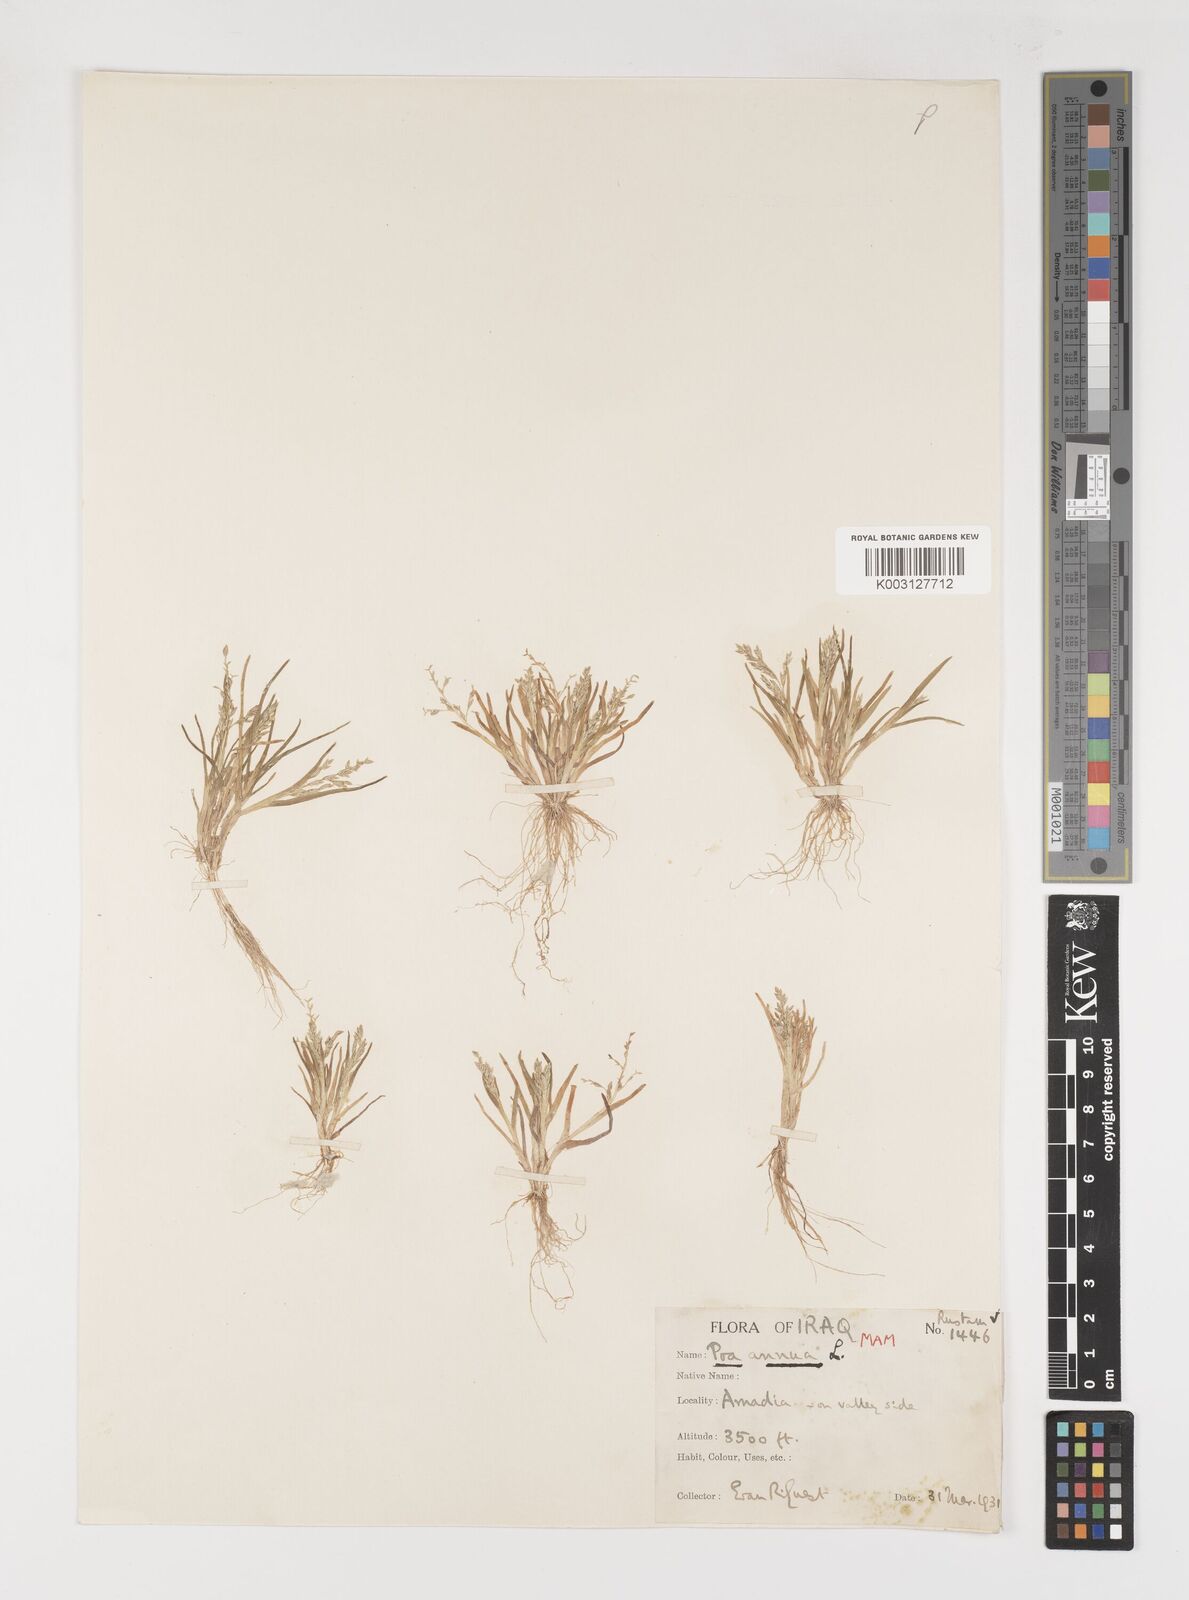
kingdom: Plantae
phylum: Tracheophyta
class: Liliopsida
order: Poales
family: Poaceae
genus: Poa
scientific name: Poa annua
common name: Annual bluegrass
